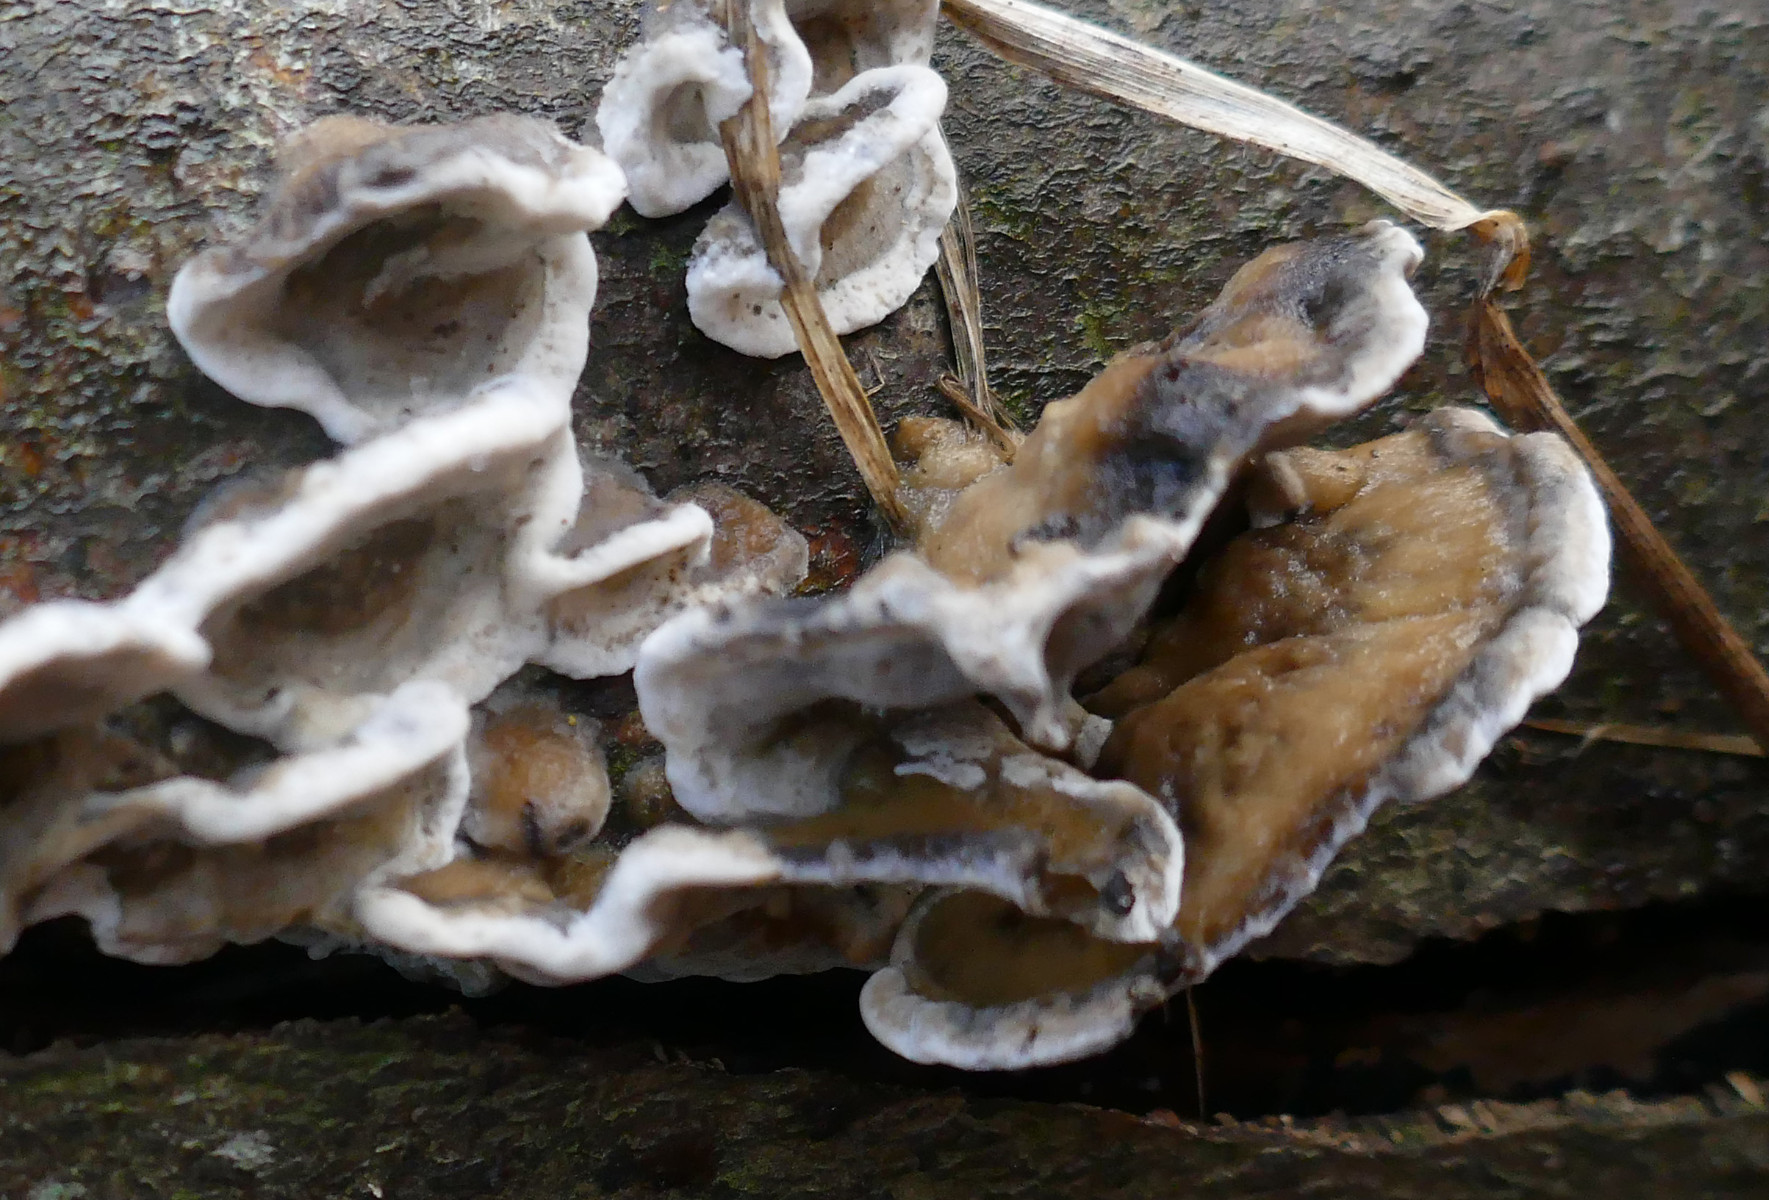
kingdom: Fungi
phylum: Basidiomycota
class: Agaricomycetes
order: Polyporales
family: Phanerochaetaceae
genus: Bjerkandera
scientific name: Bjerkandera adusta
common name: sveden sodporesvamp
